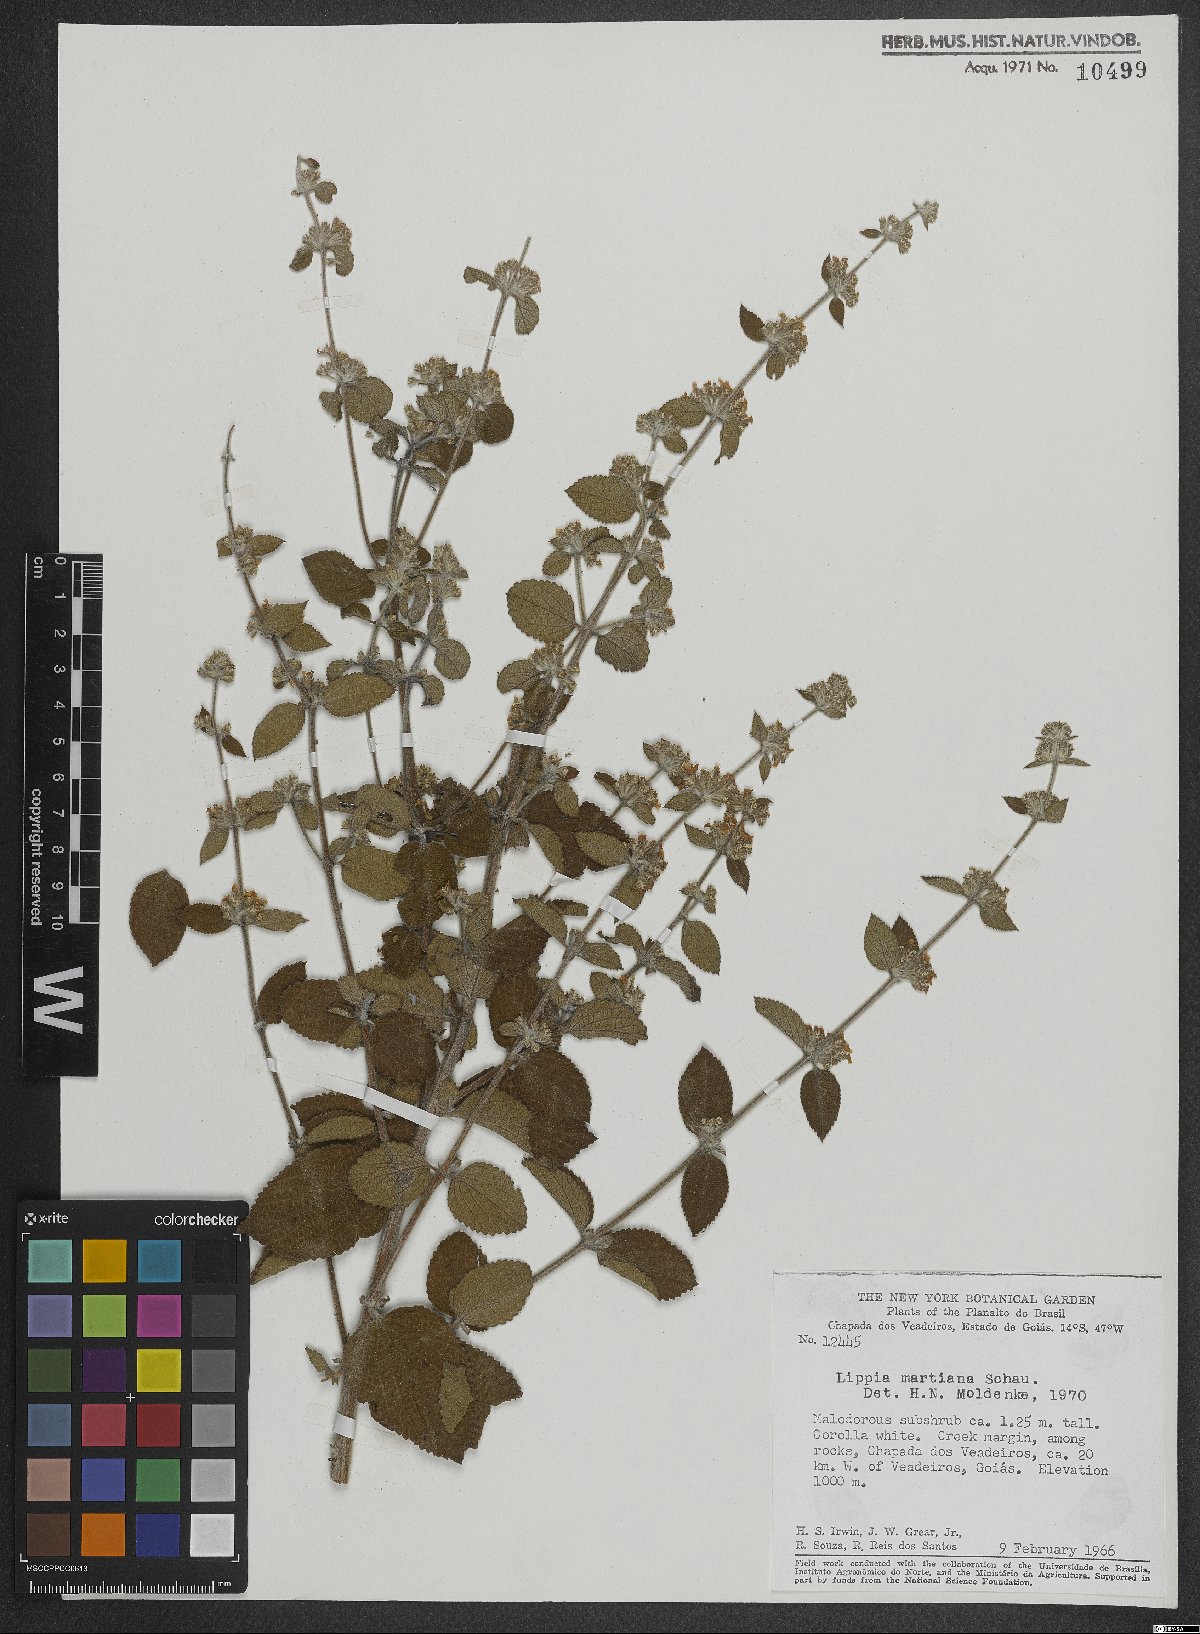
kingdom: Plantae
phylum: Tracheophyta
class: Magnoliopsida
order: Lamiales
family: Verbenaceae
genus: Lippia
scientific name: Lippia martiana
